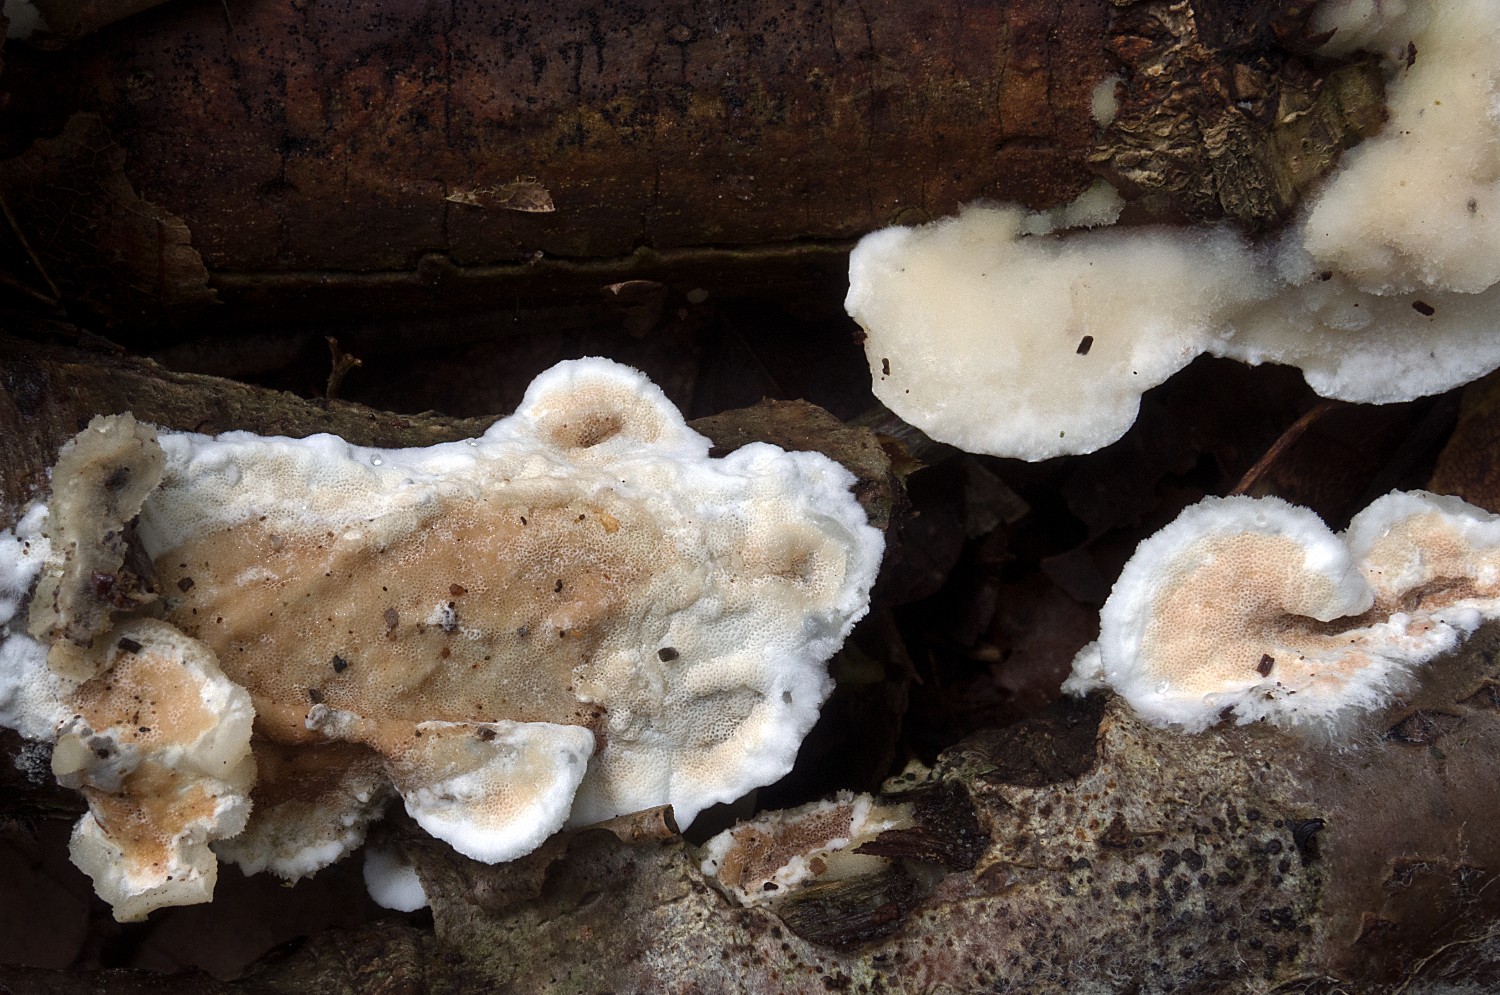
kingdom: Fungi
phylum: Basidiomycota
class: Agaricomycetes
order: Polyporales
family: Irpicaceae
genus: Vitreoporus
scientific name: Vitreoporus dichrous
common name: tofarvet foldporesvamp
